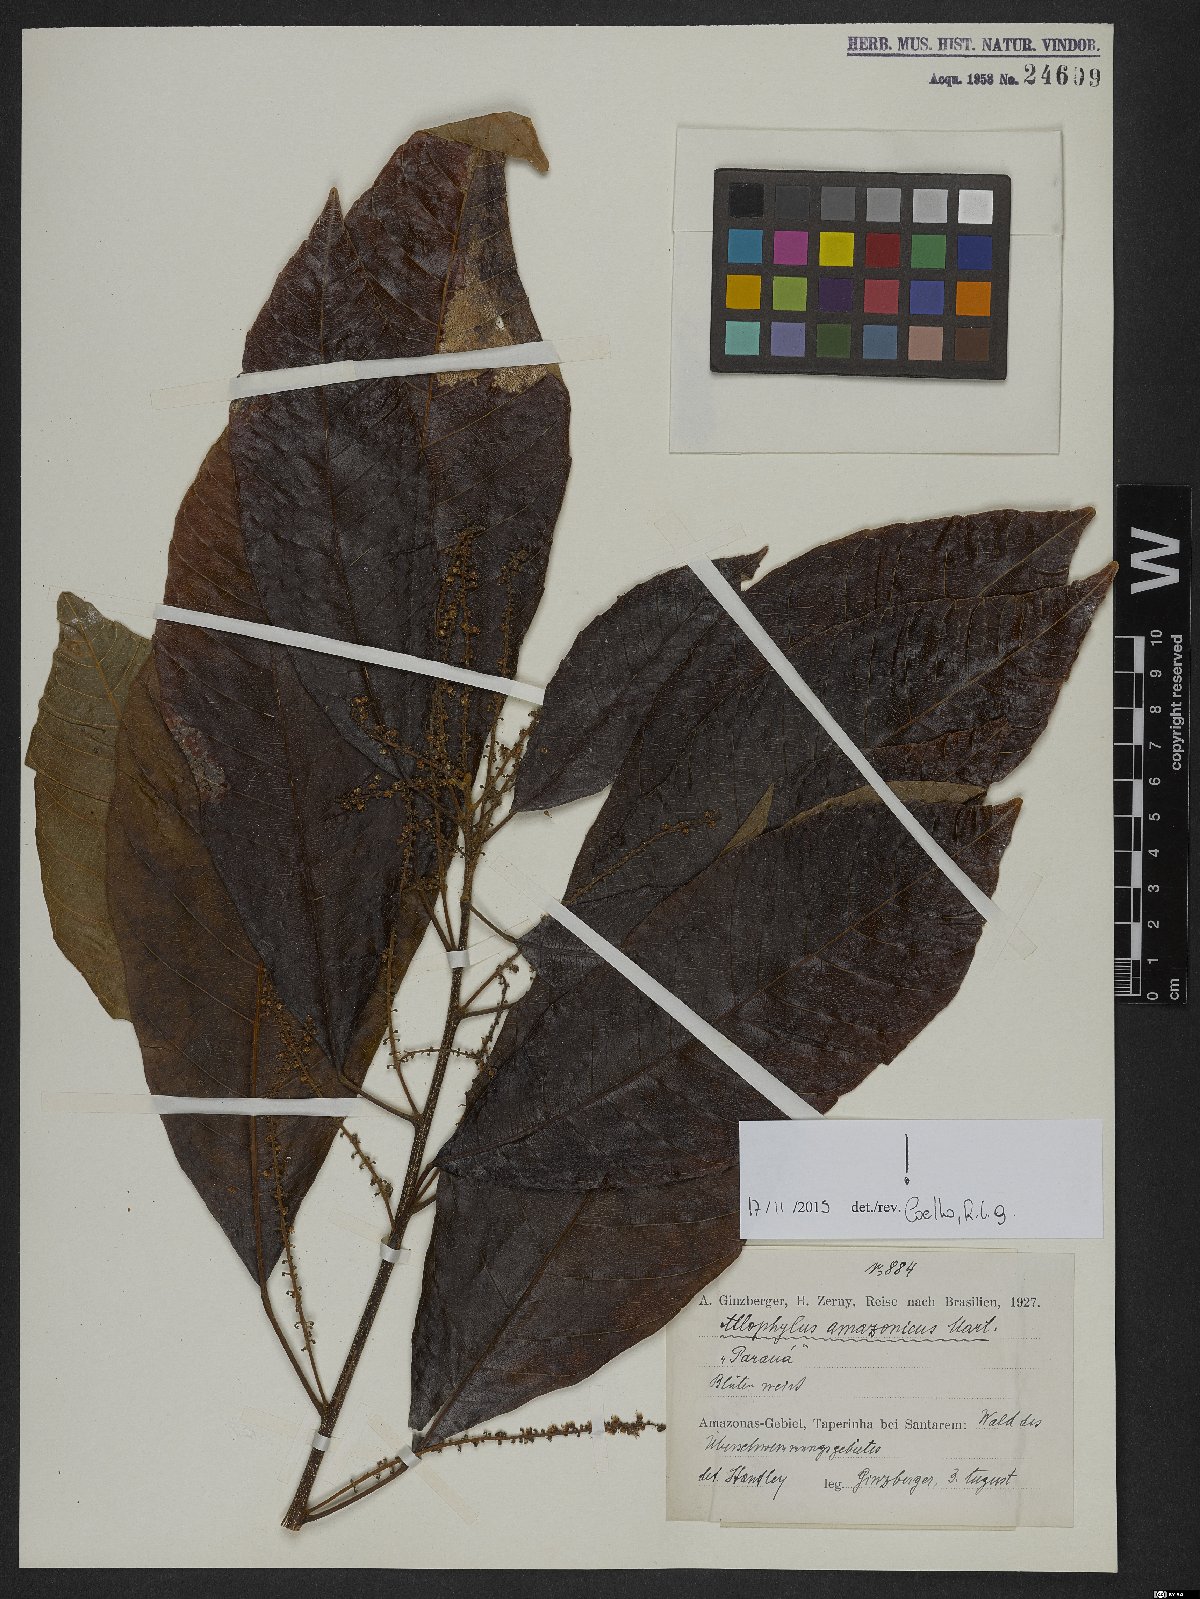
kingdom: Plantae
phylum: Tracheophyta
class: Magnoliopsida
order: Sapindales
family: Sapindaceae
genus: Allophylus
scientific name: Allophylus amazonicus
